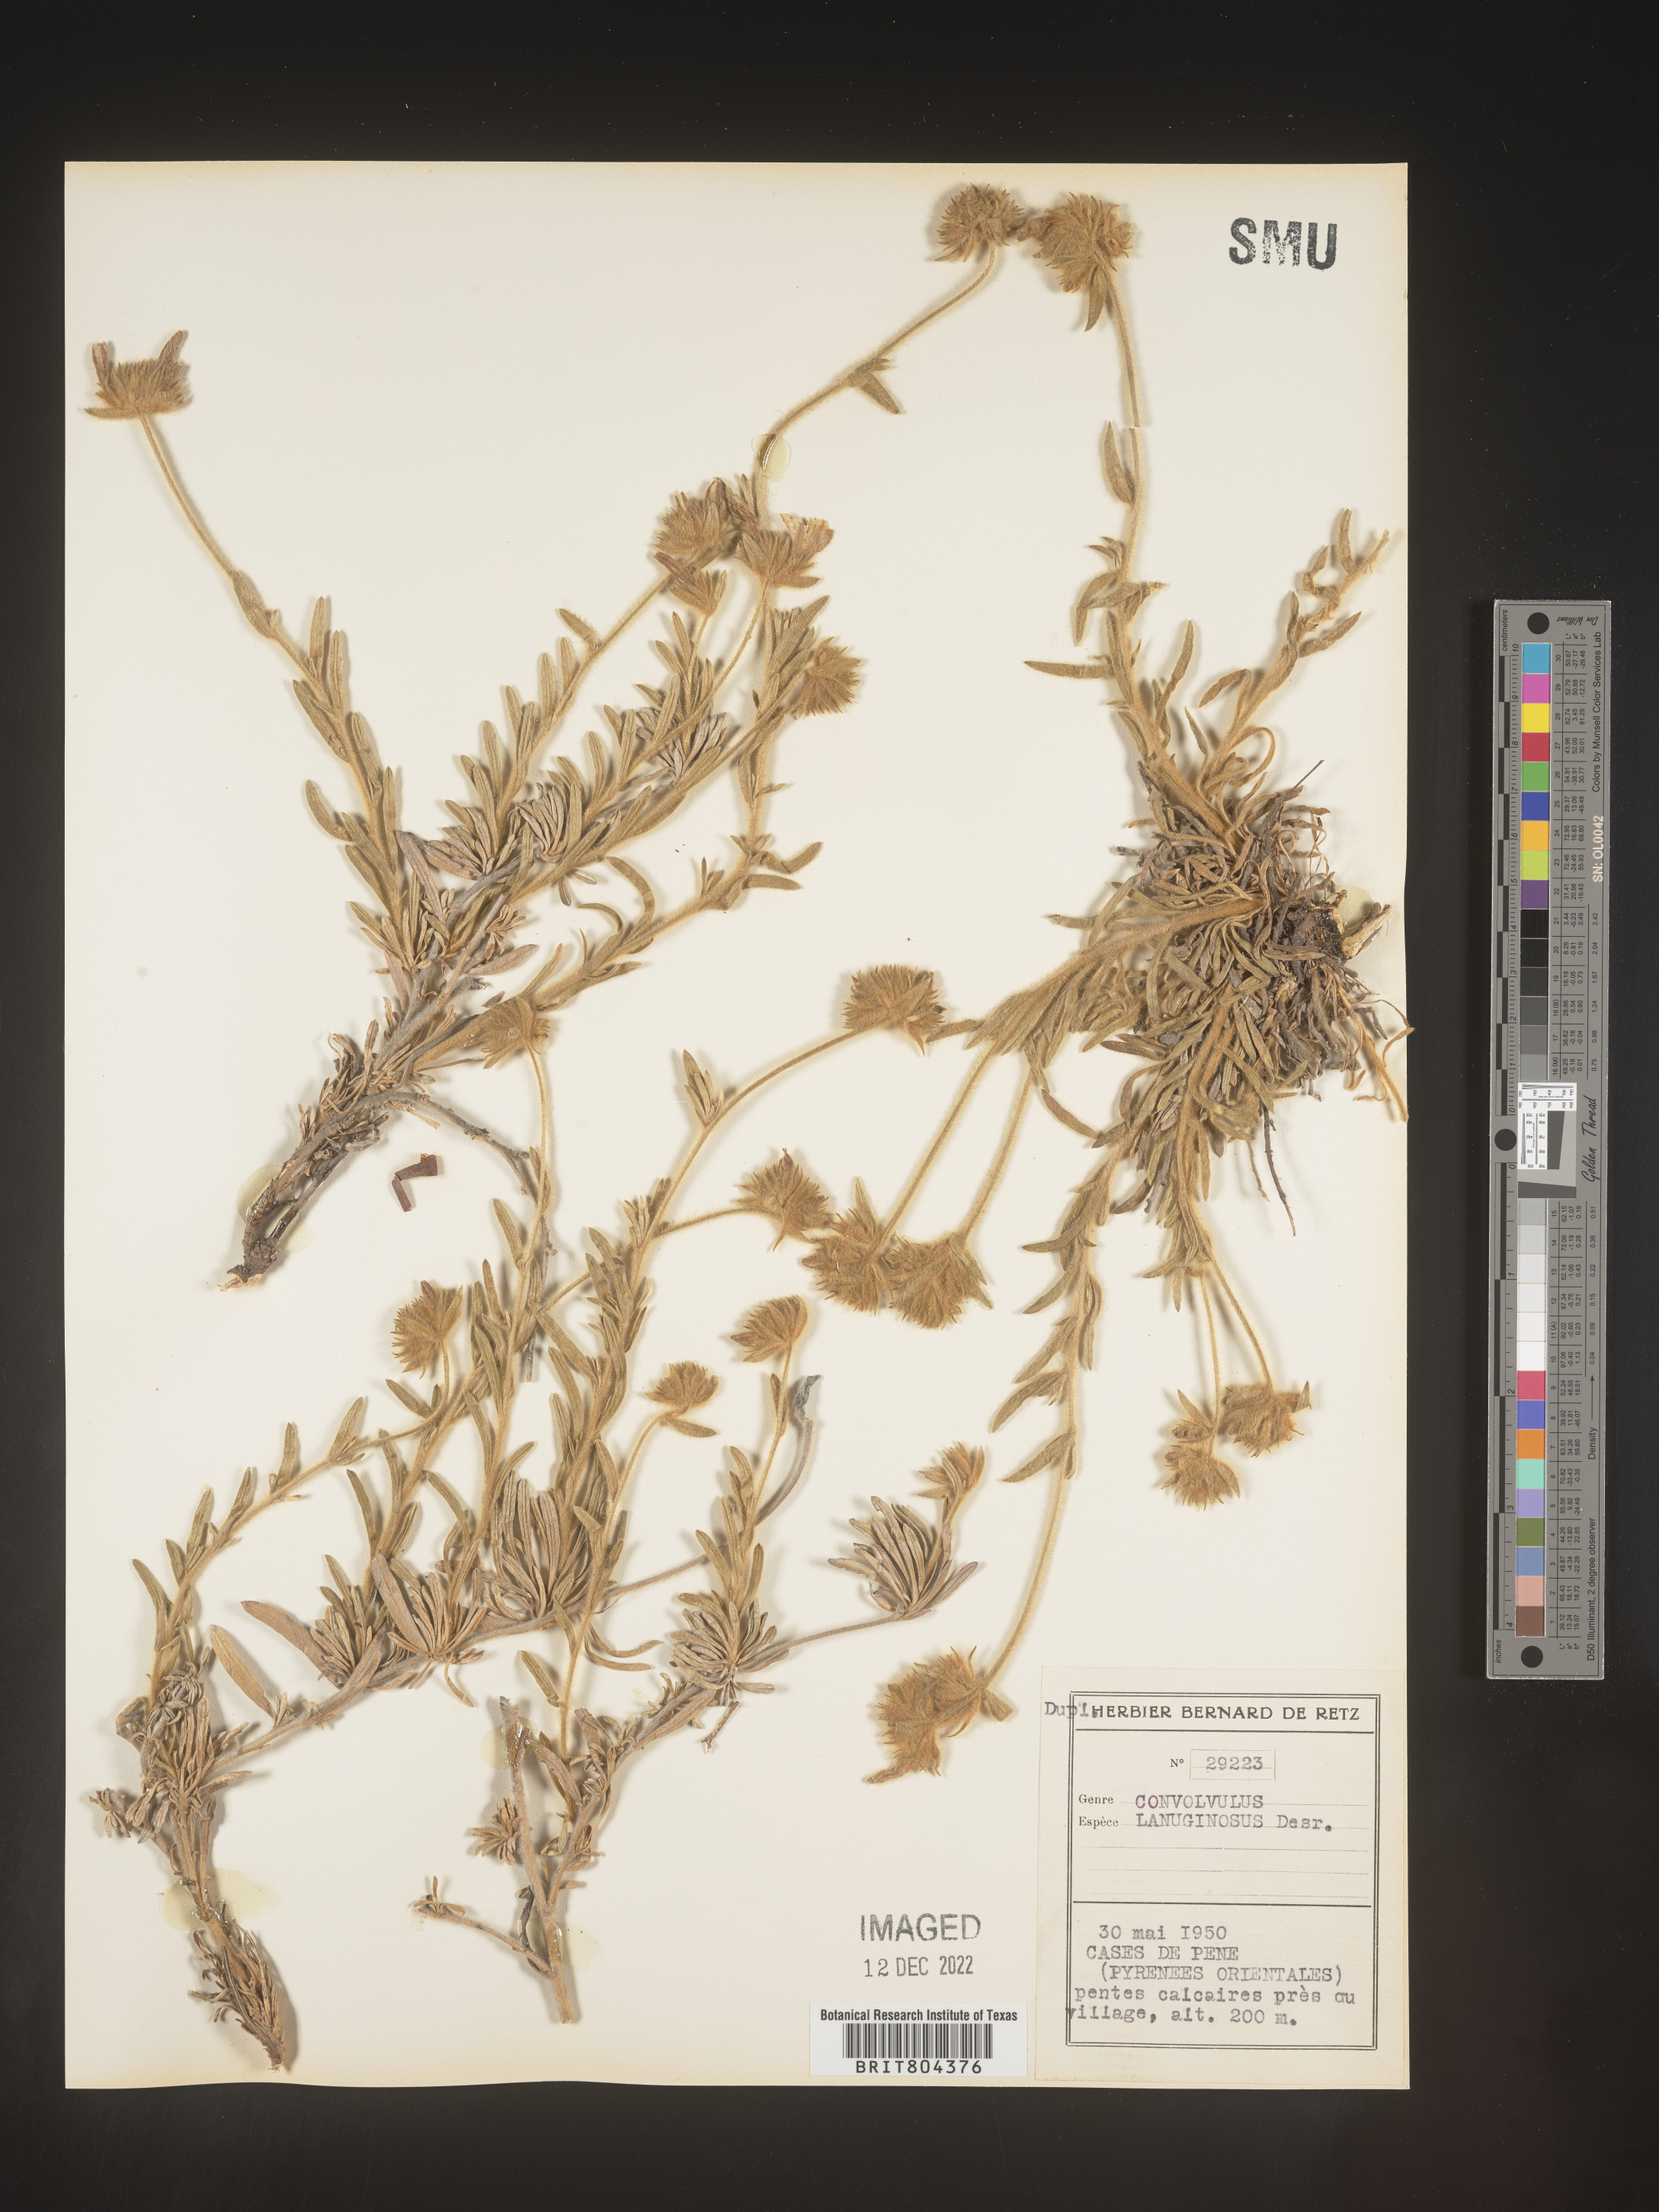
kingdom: Plantae
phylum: Tracheophyta
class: Magnoliopsida
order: Solanales
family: Convolvulaceae
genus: Convolvulus
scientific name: Convolvulus
